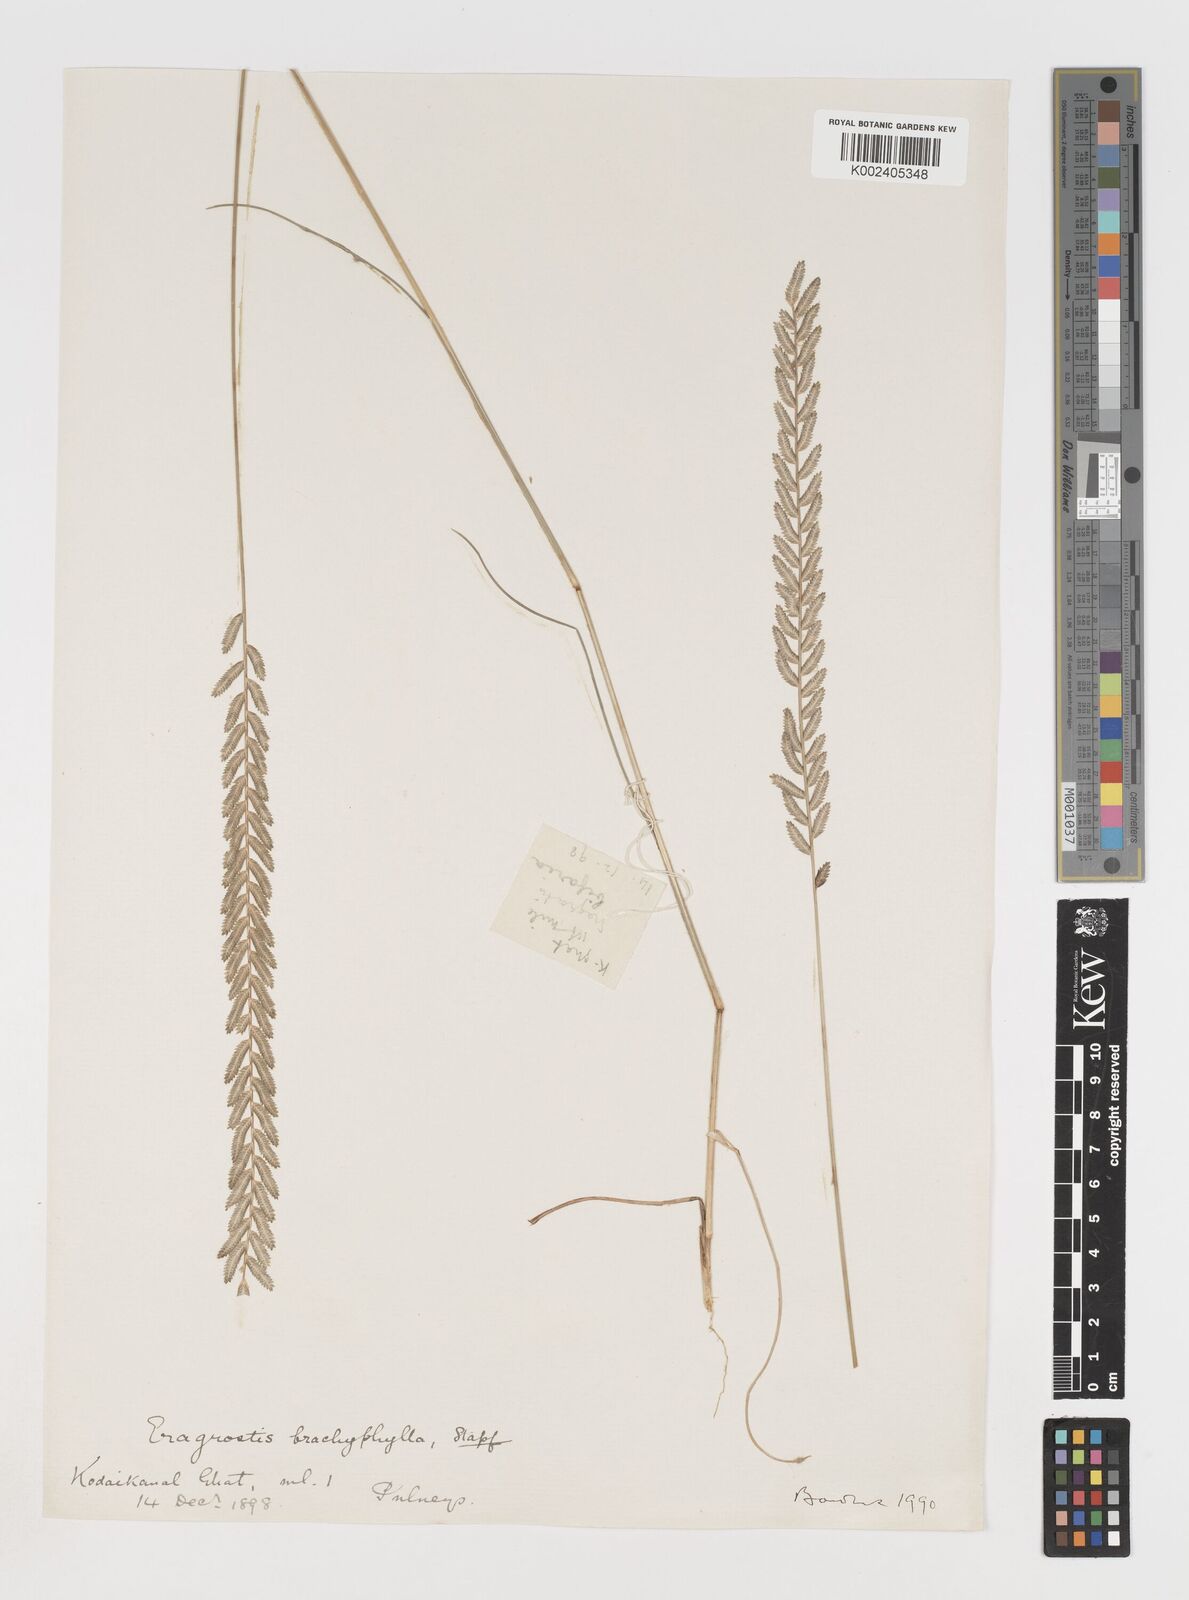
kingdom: Plantae
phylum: Tracheophyta
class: Liliopsida
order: Poales
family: Poaceae
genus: Eragrostiella
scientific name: Eragrostiella bifaria
